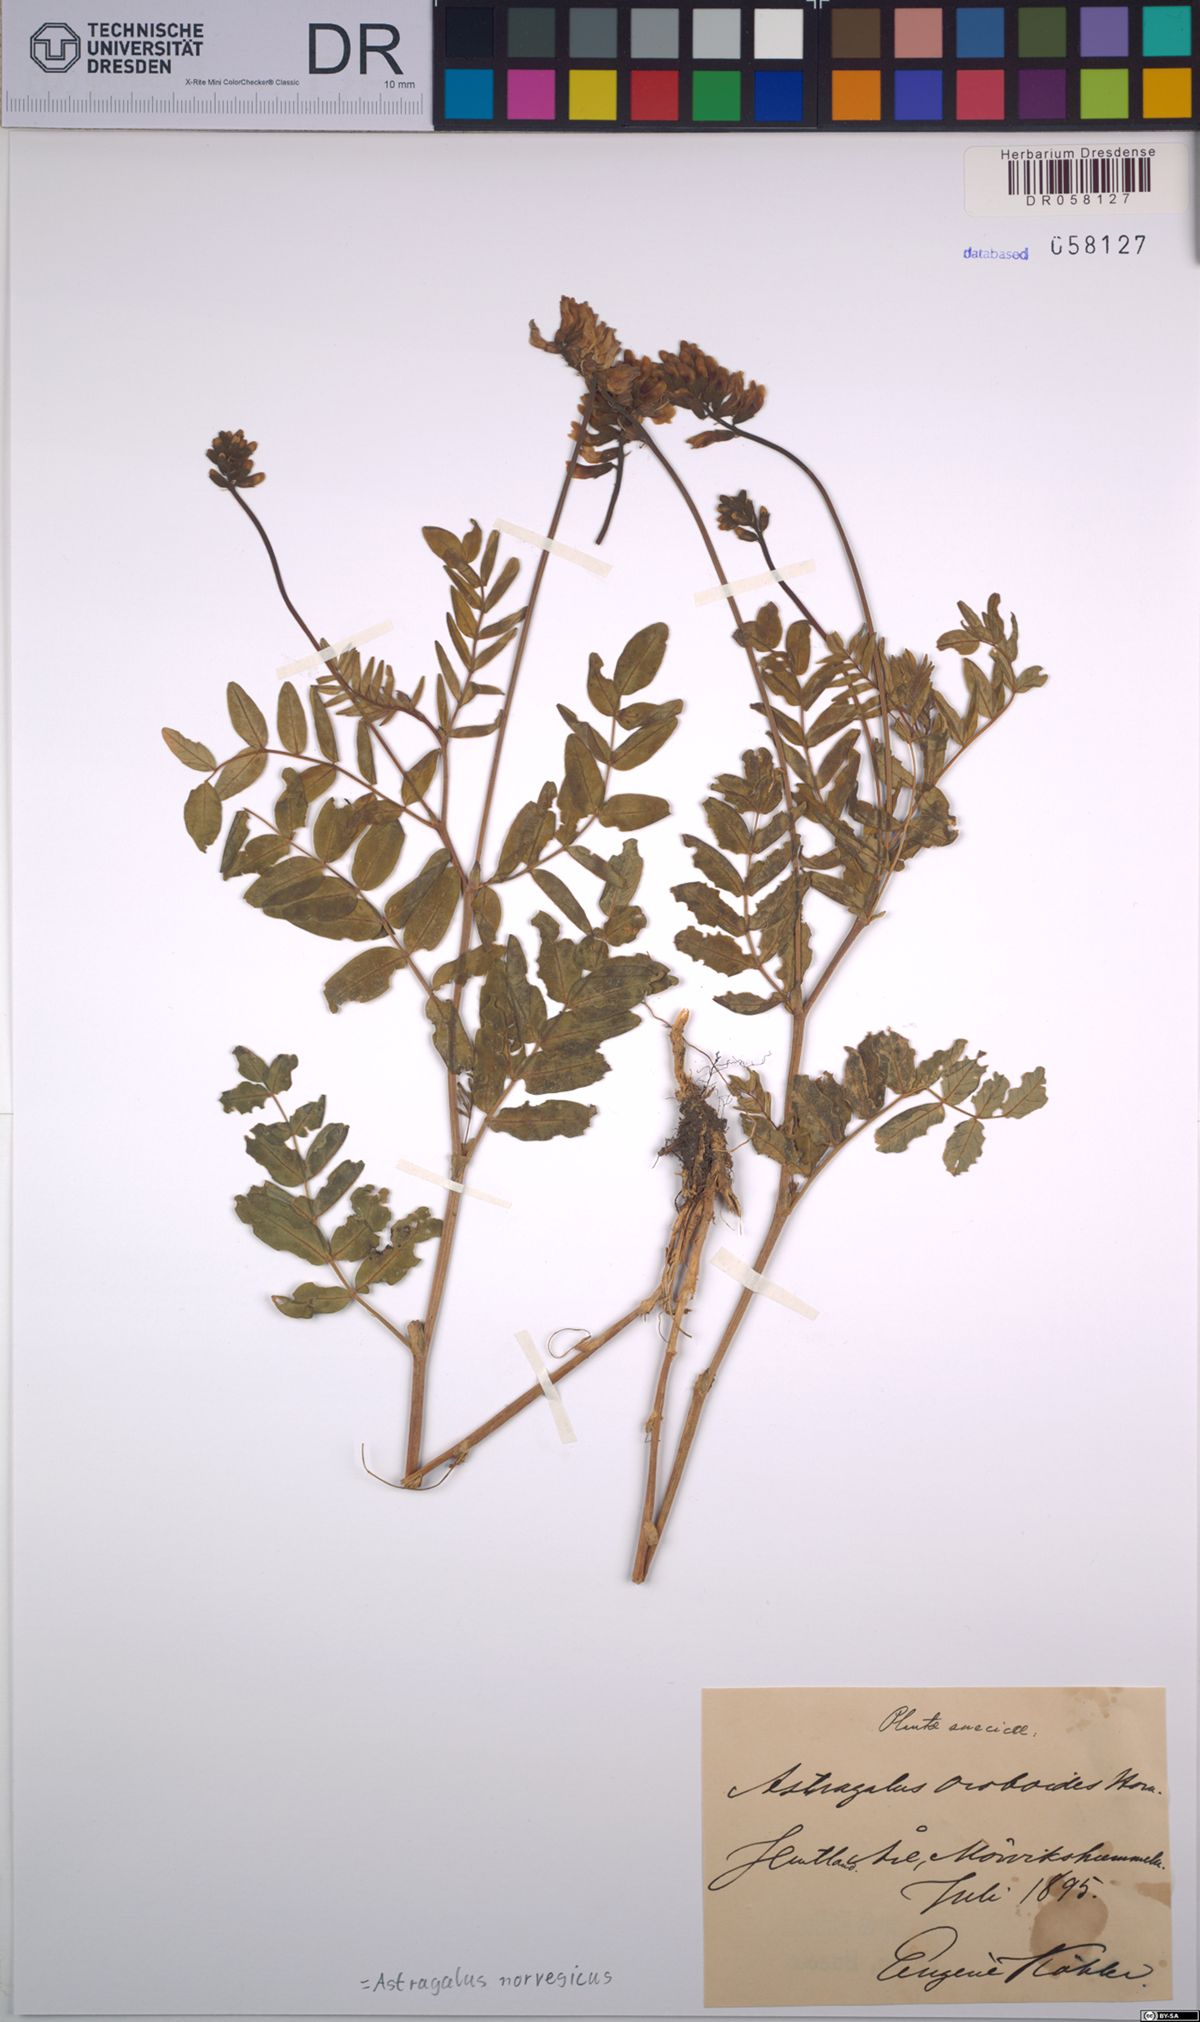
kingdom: Plantae
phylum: Tracheophyta
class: Magnoliopsida
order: Fabales
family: Fabaceae
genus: Astragalus
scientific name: Astragalus norvegicus
